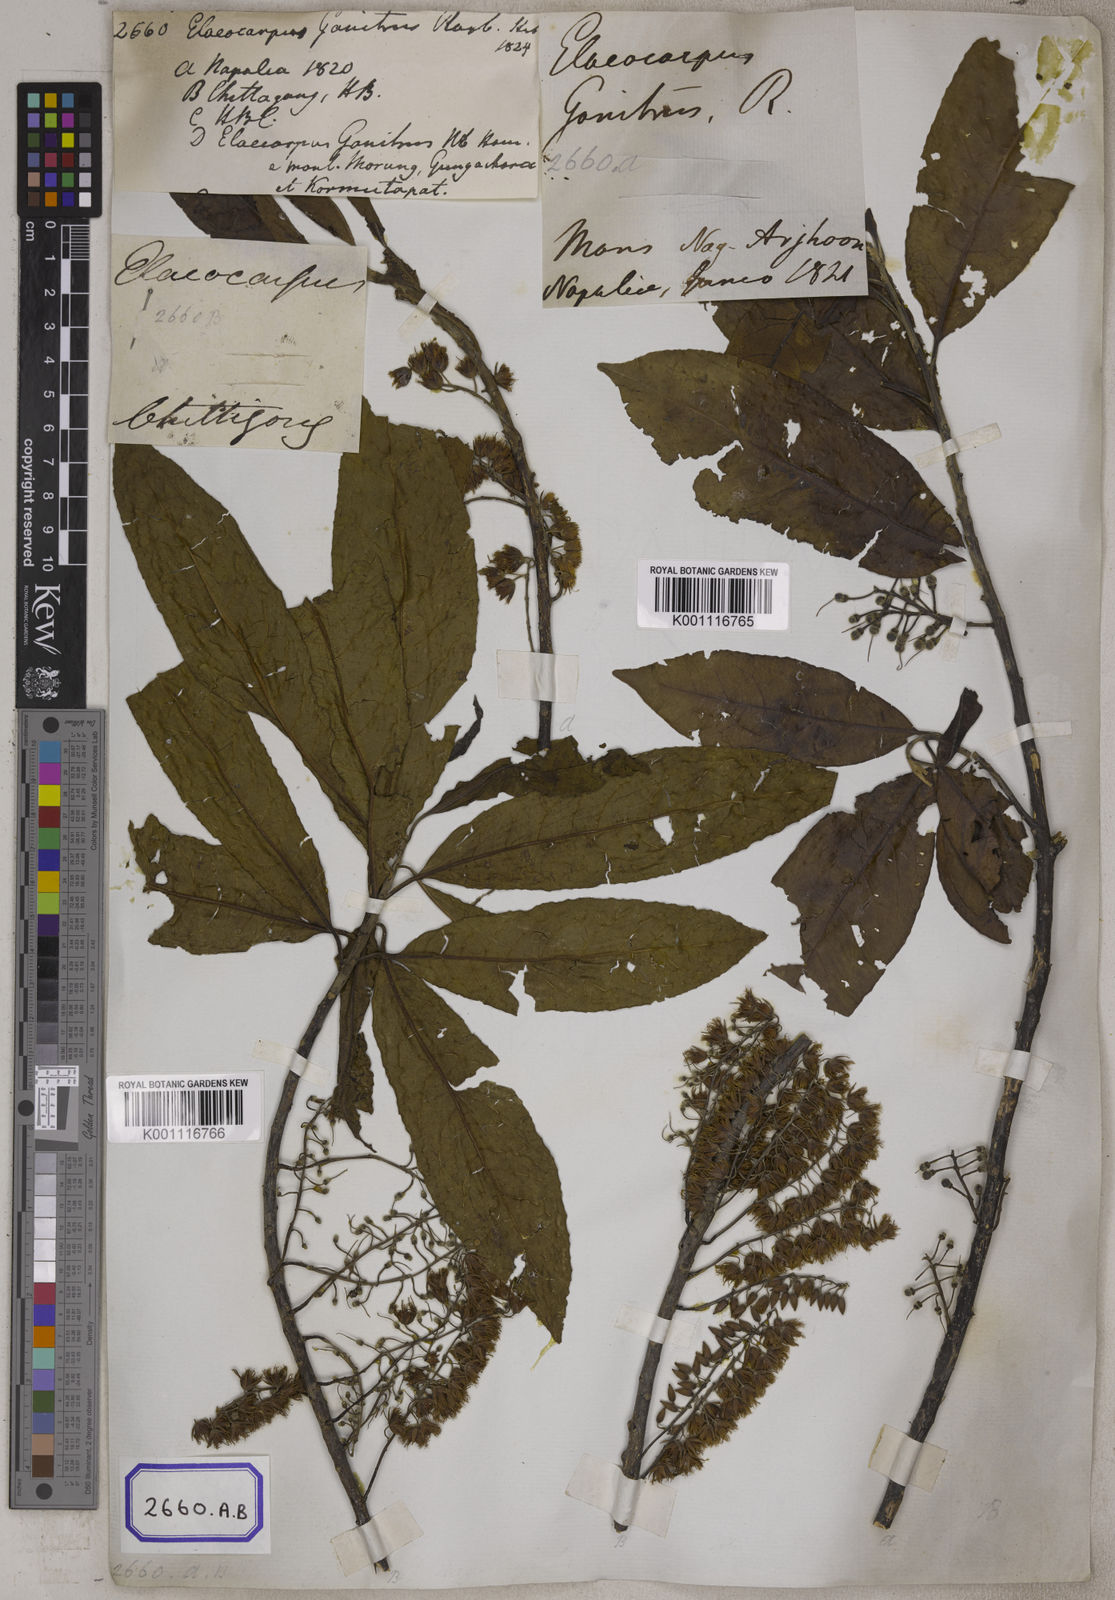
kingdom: Plantae
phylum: Tracheophyta
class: Magnoliopsida
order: Oxalidales
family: Elaeocarpaceae
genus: Elaeocarpus
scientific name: Elaeocarpus
